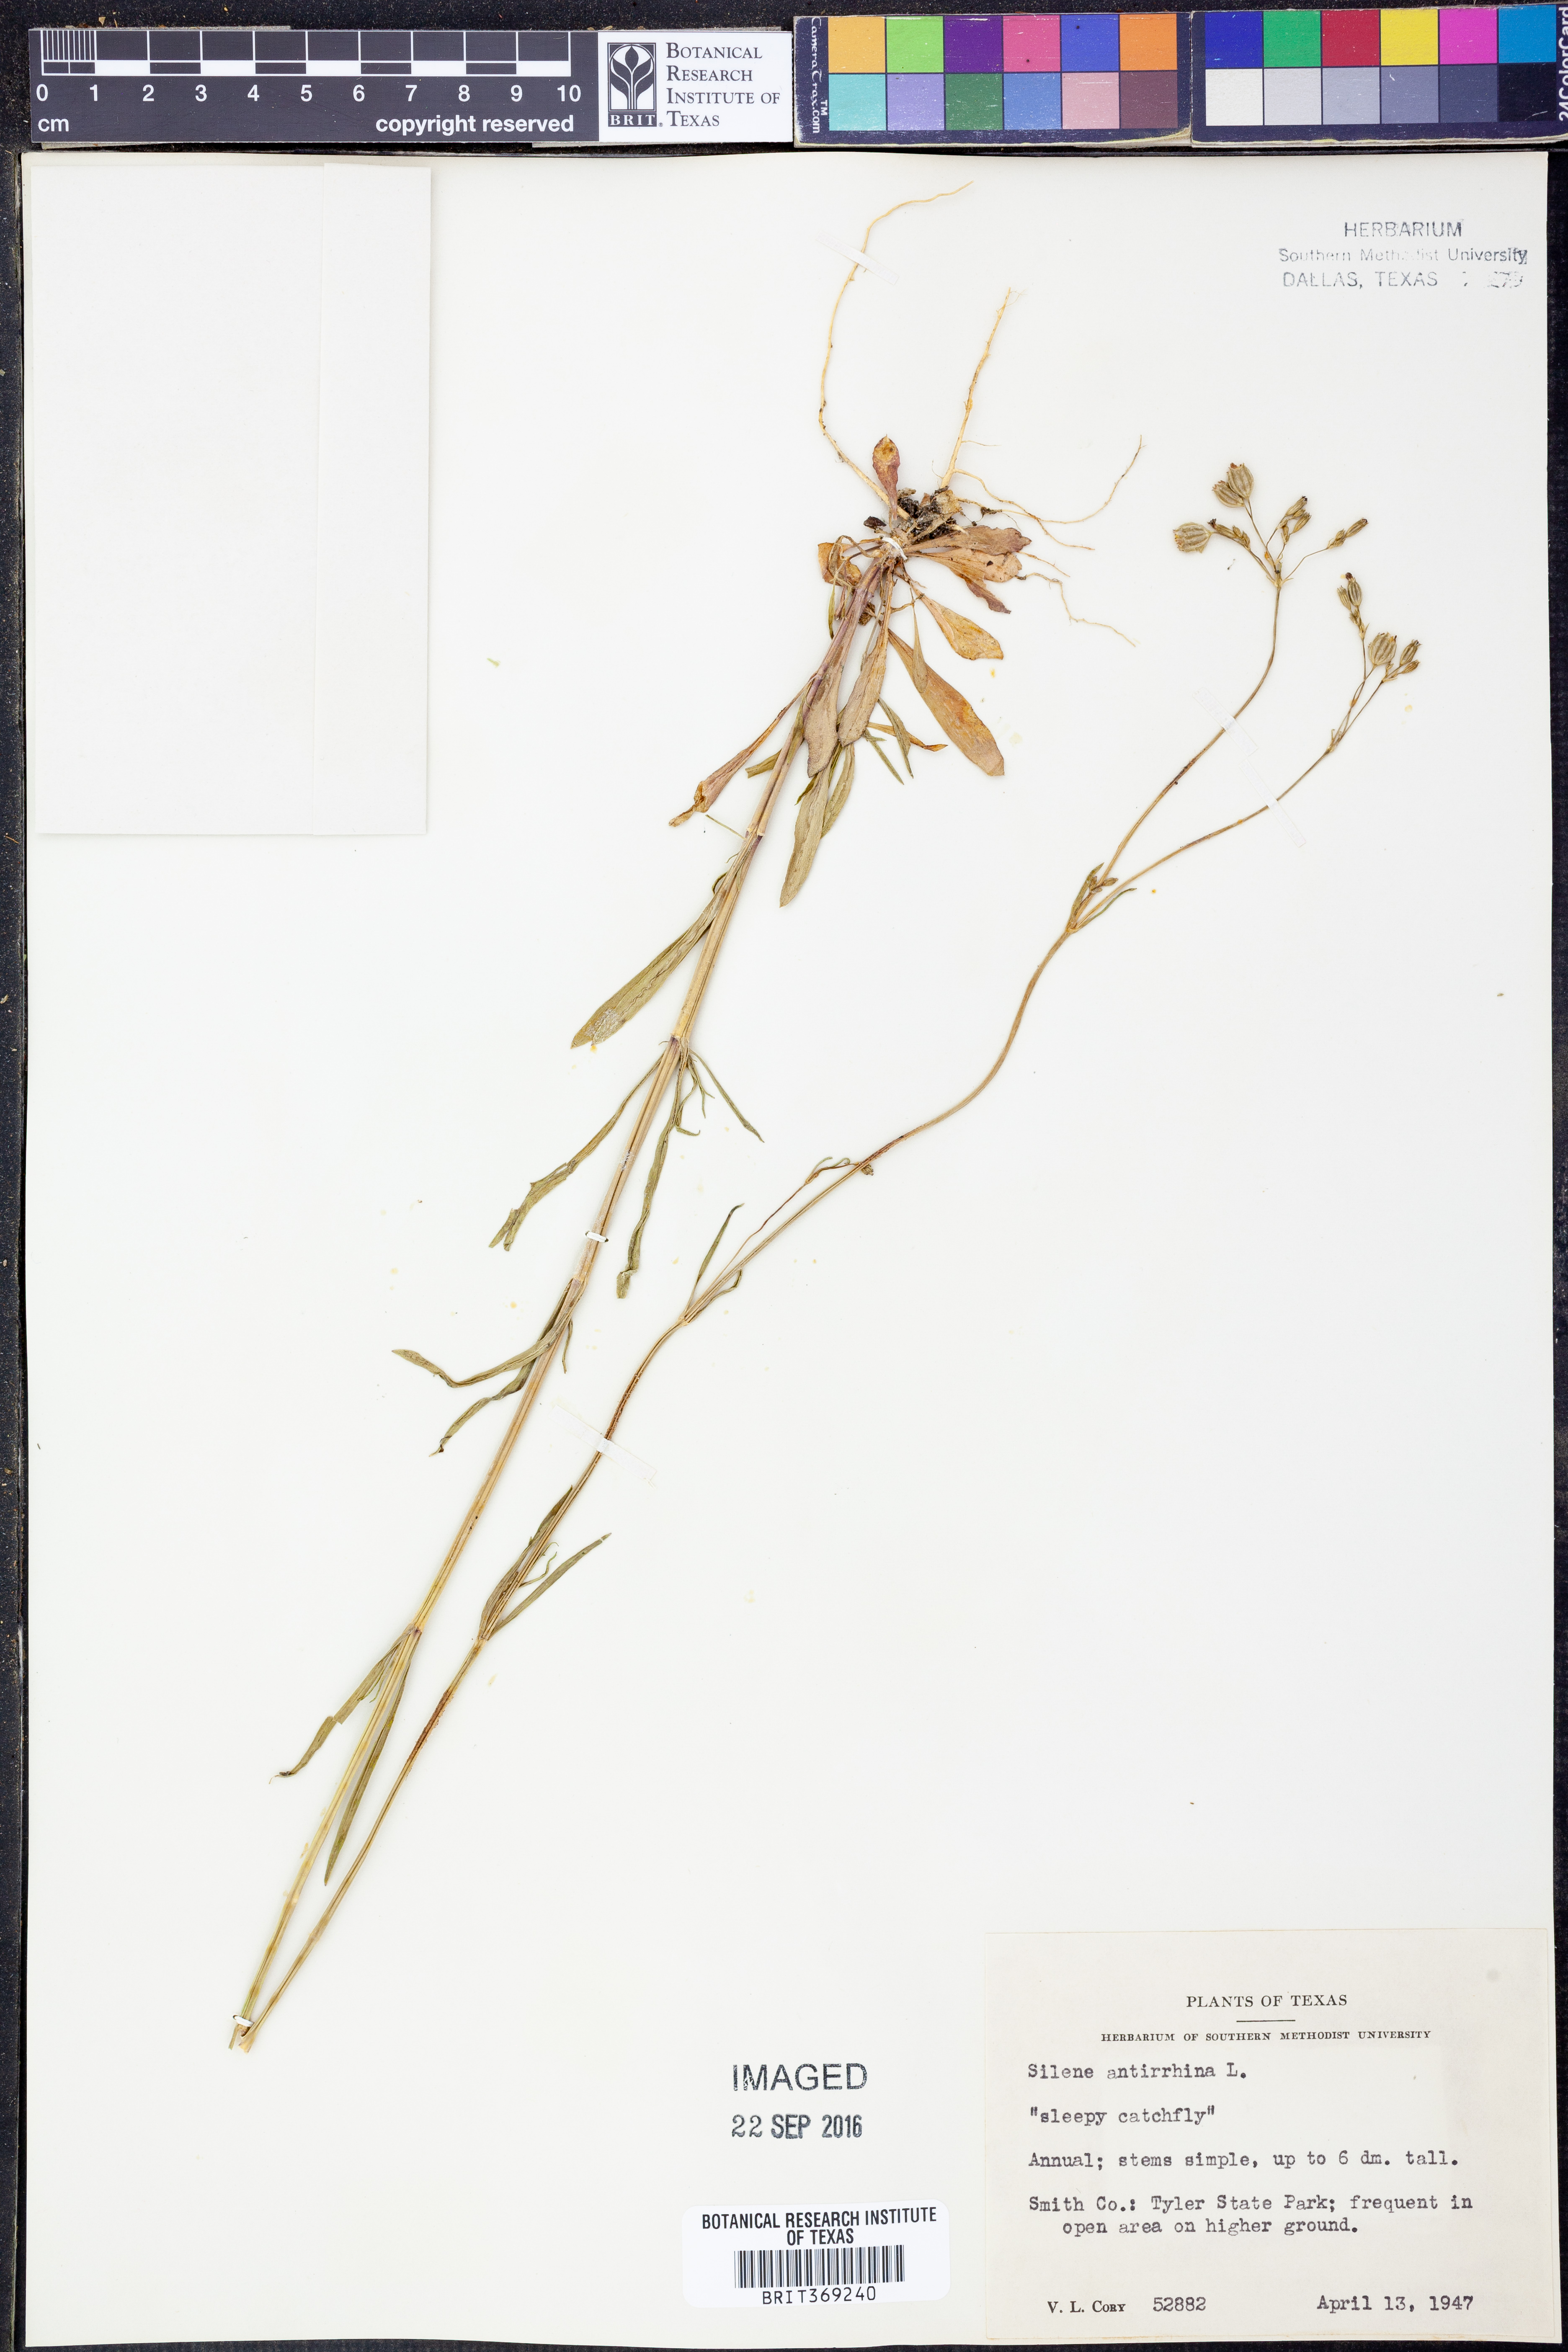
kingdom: Plantae
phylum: Tracheophyta
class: Magnoliopsida
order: Caryophyllales
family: Caryophyllaceae
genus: Silene
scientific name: Silene antirrhina
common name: Sleepy catchfly
